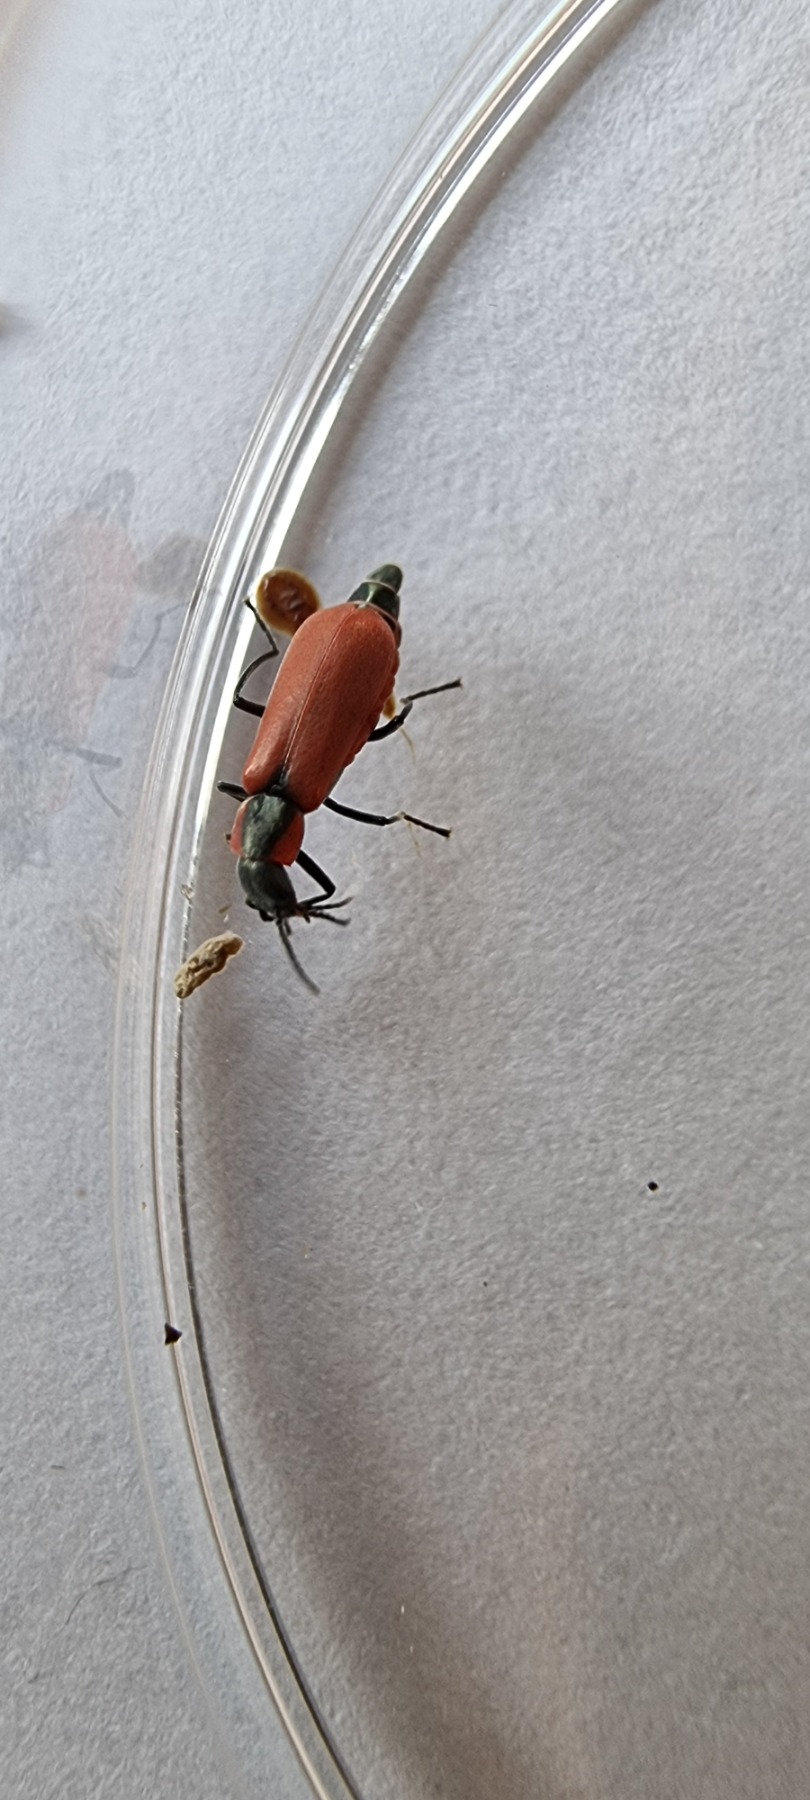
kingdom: Animalia
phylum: Arthropoda
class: Insecta
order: Coleoptera
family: Melyridae
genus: Anthocomus
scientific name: Anthocomus rufus
